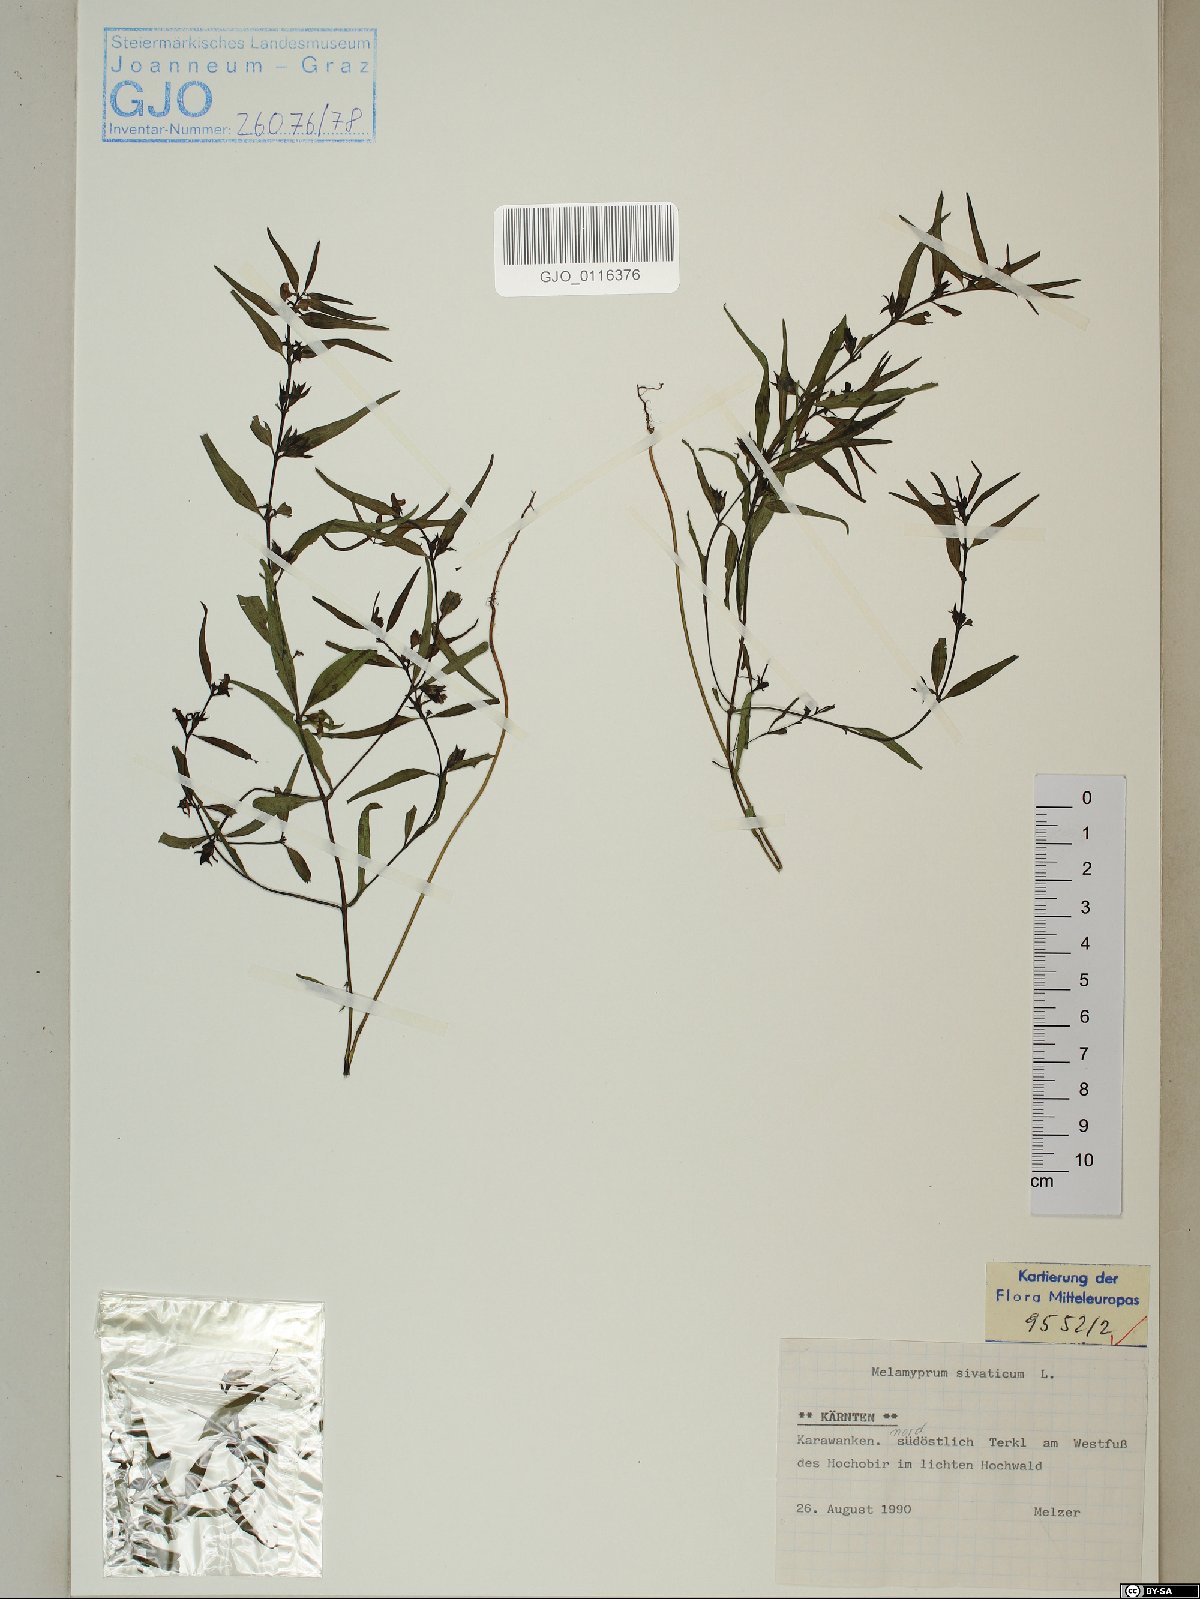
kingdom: Plantae
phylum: Tracheophyta
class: Magnoliopsida
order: Lamiales
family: Orobanchaceae
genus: Melampyrum
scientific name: Melampyrum sylvaticum
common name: Small cow-wheat
